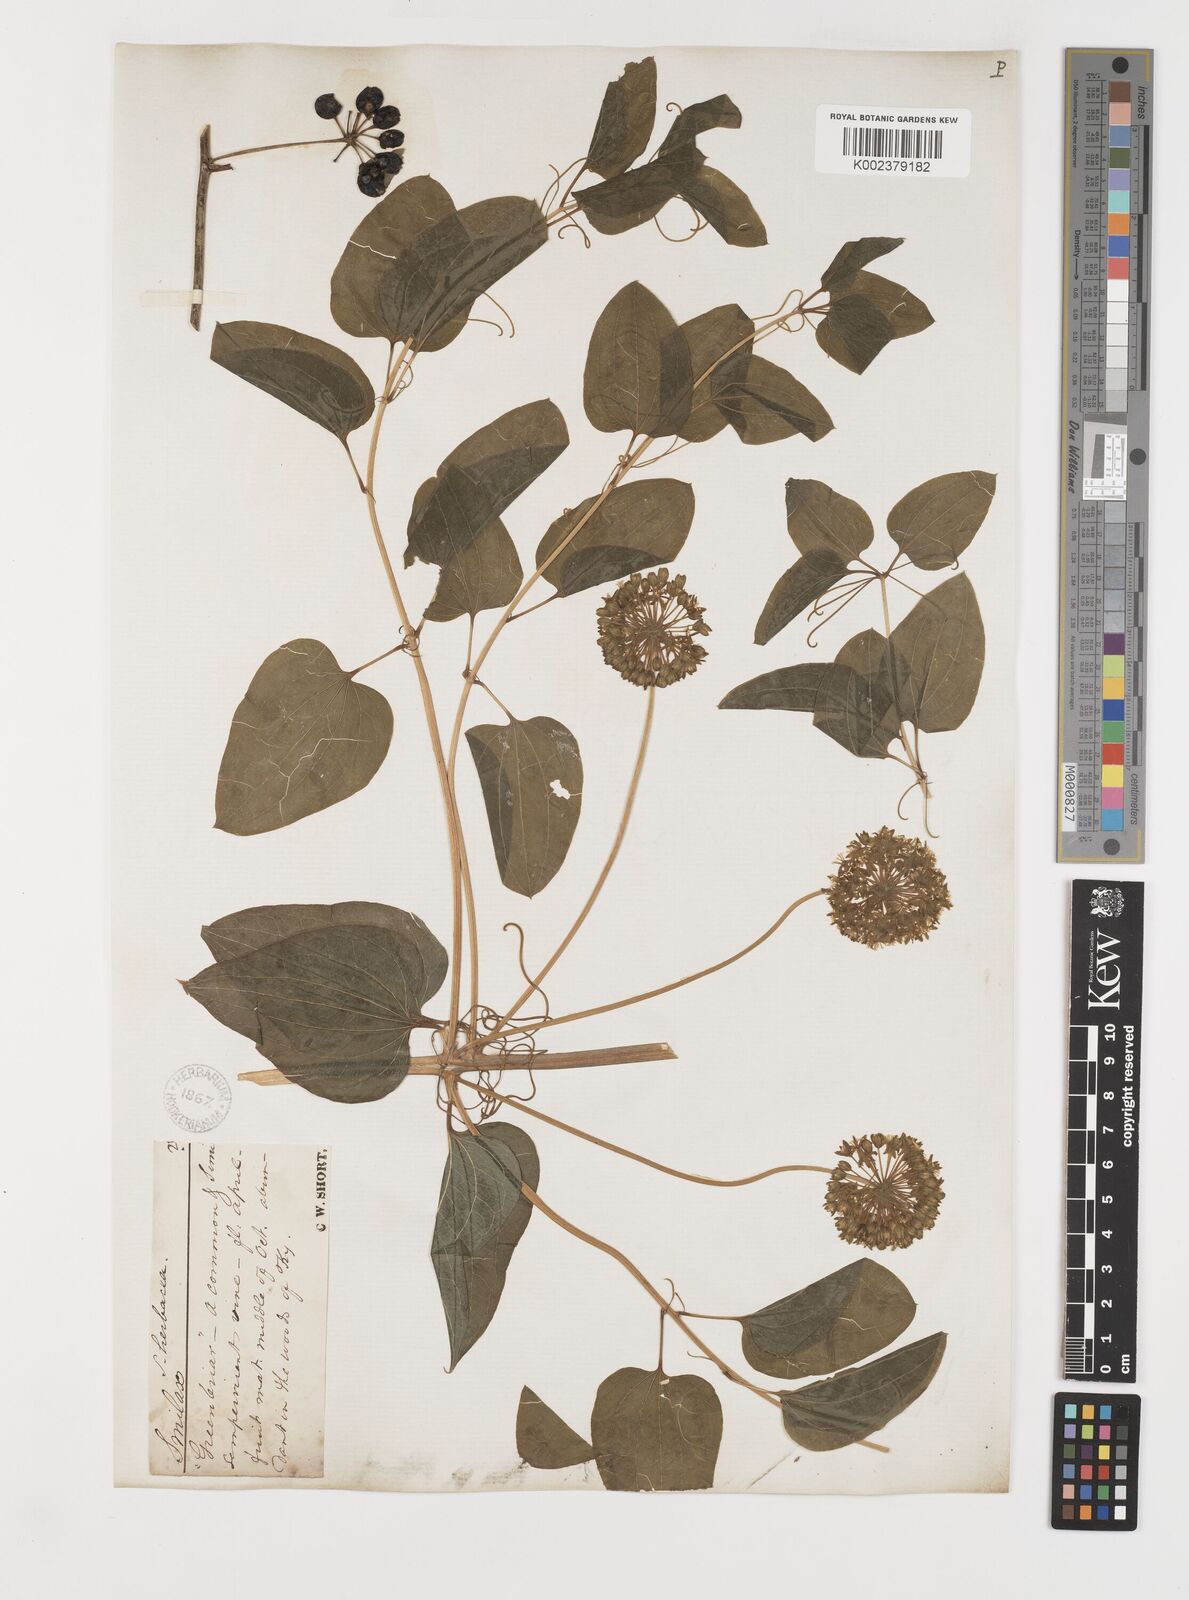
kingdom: Plantae
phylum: Tracheophyta
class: Liliopsida
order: Liliales
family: Smilacaceae
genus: Smilax
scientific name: Smilax herbacea
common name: Jacob's-ladder
